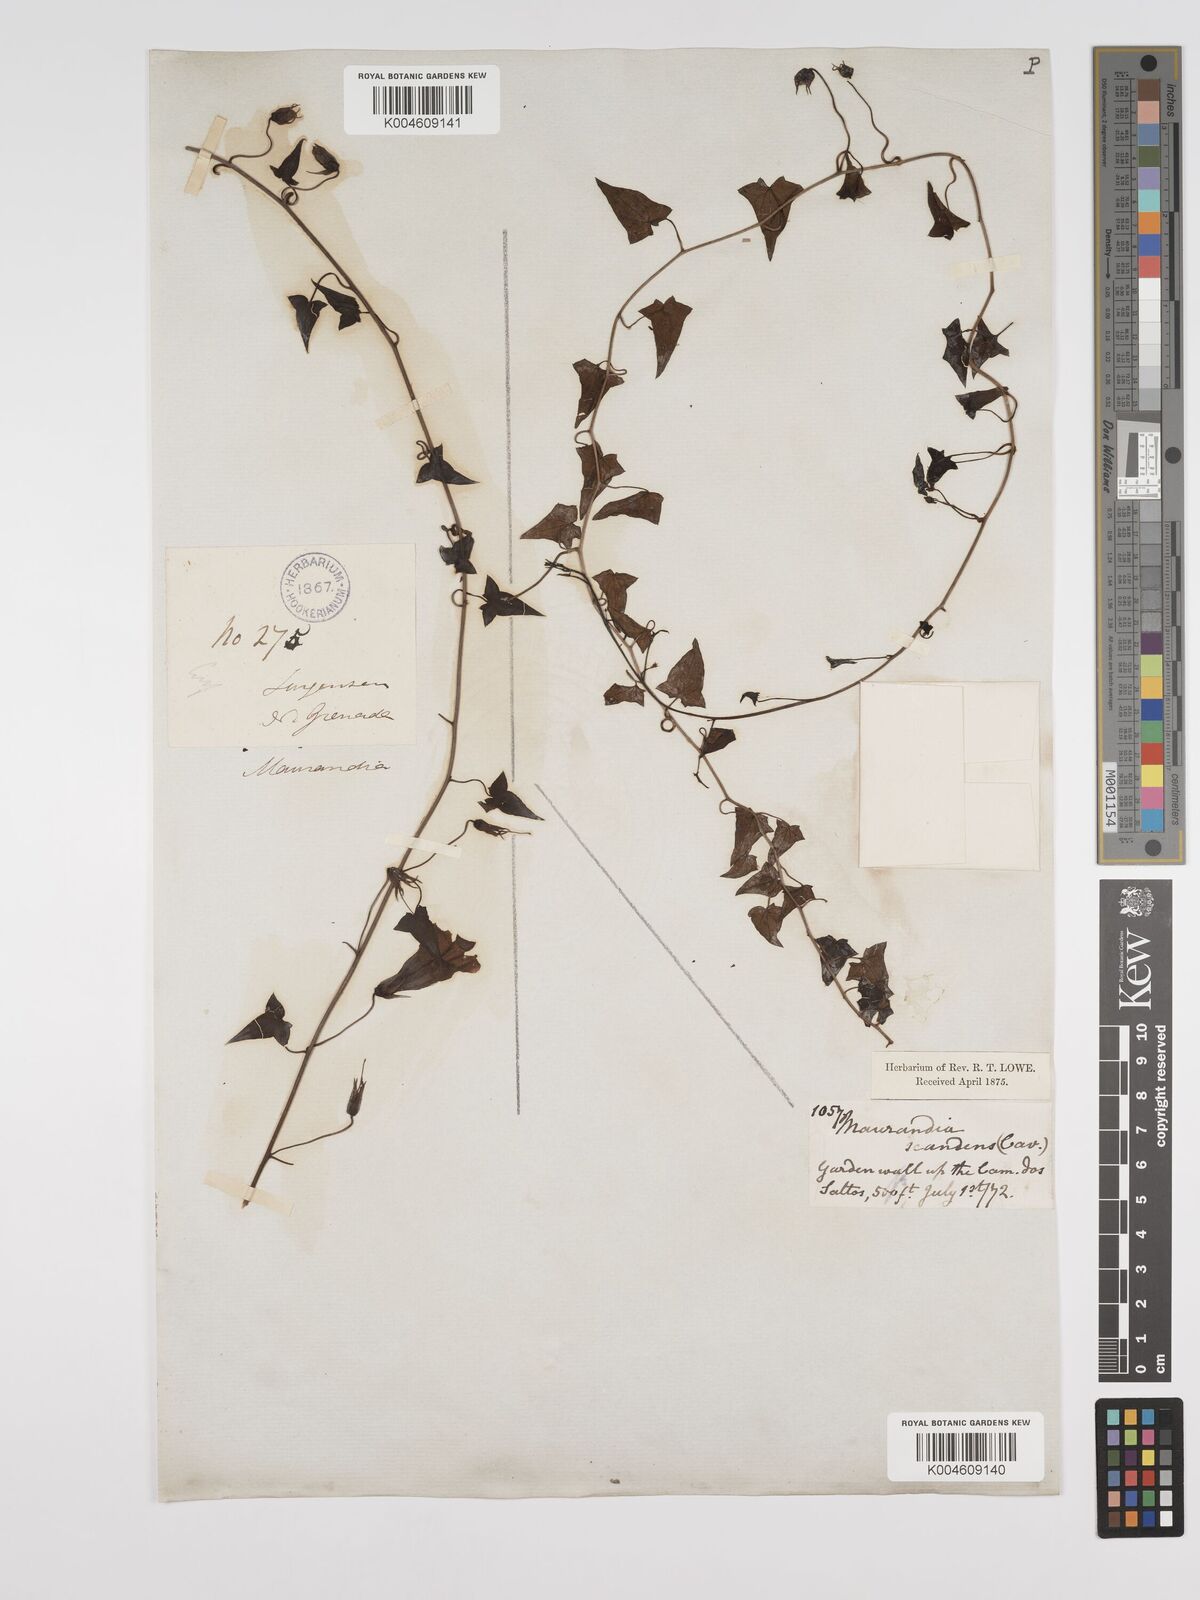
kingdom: Plantae
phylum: Tracheophyta
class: Magnoliopsida
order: Lamiales
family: Plantaginaceae
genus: Maurandya
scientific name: Maurandya scandens
